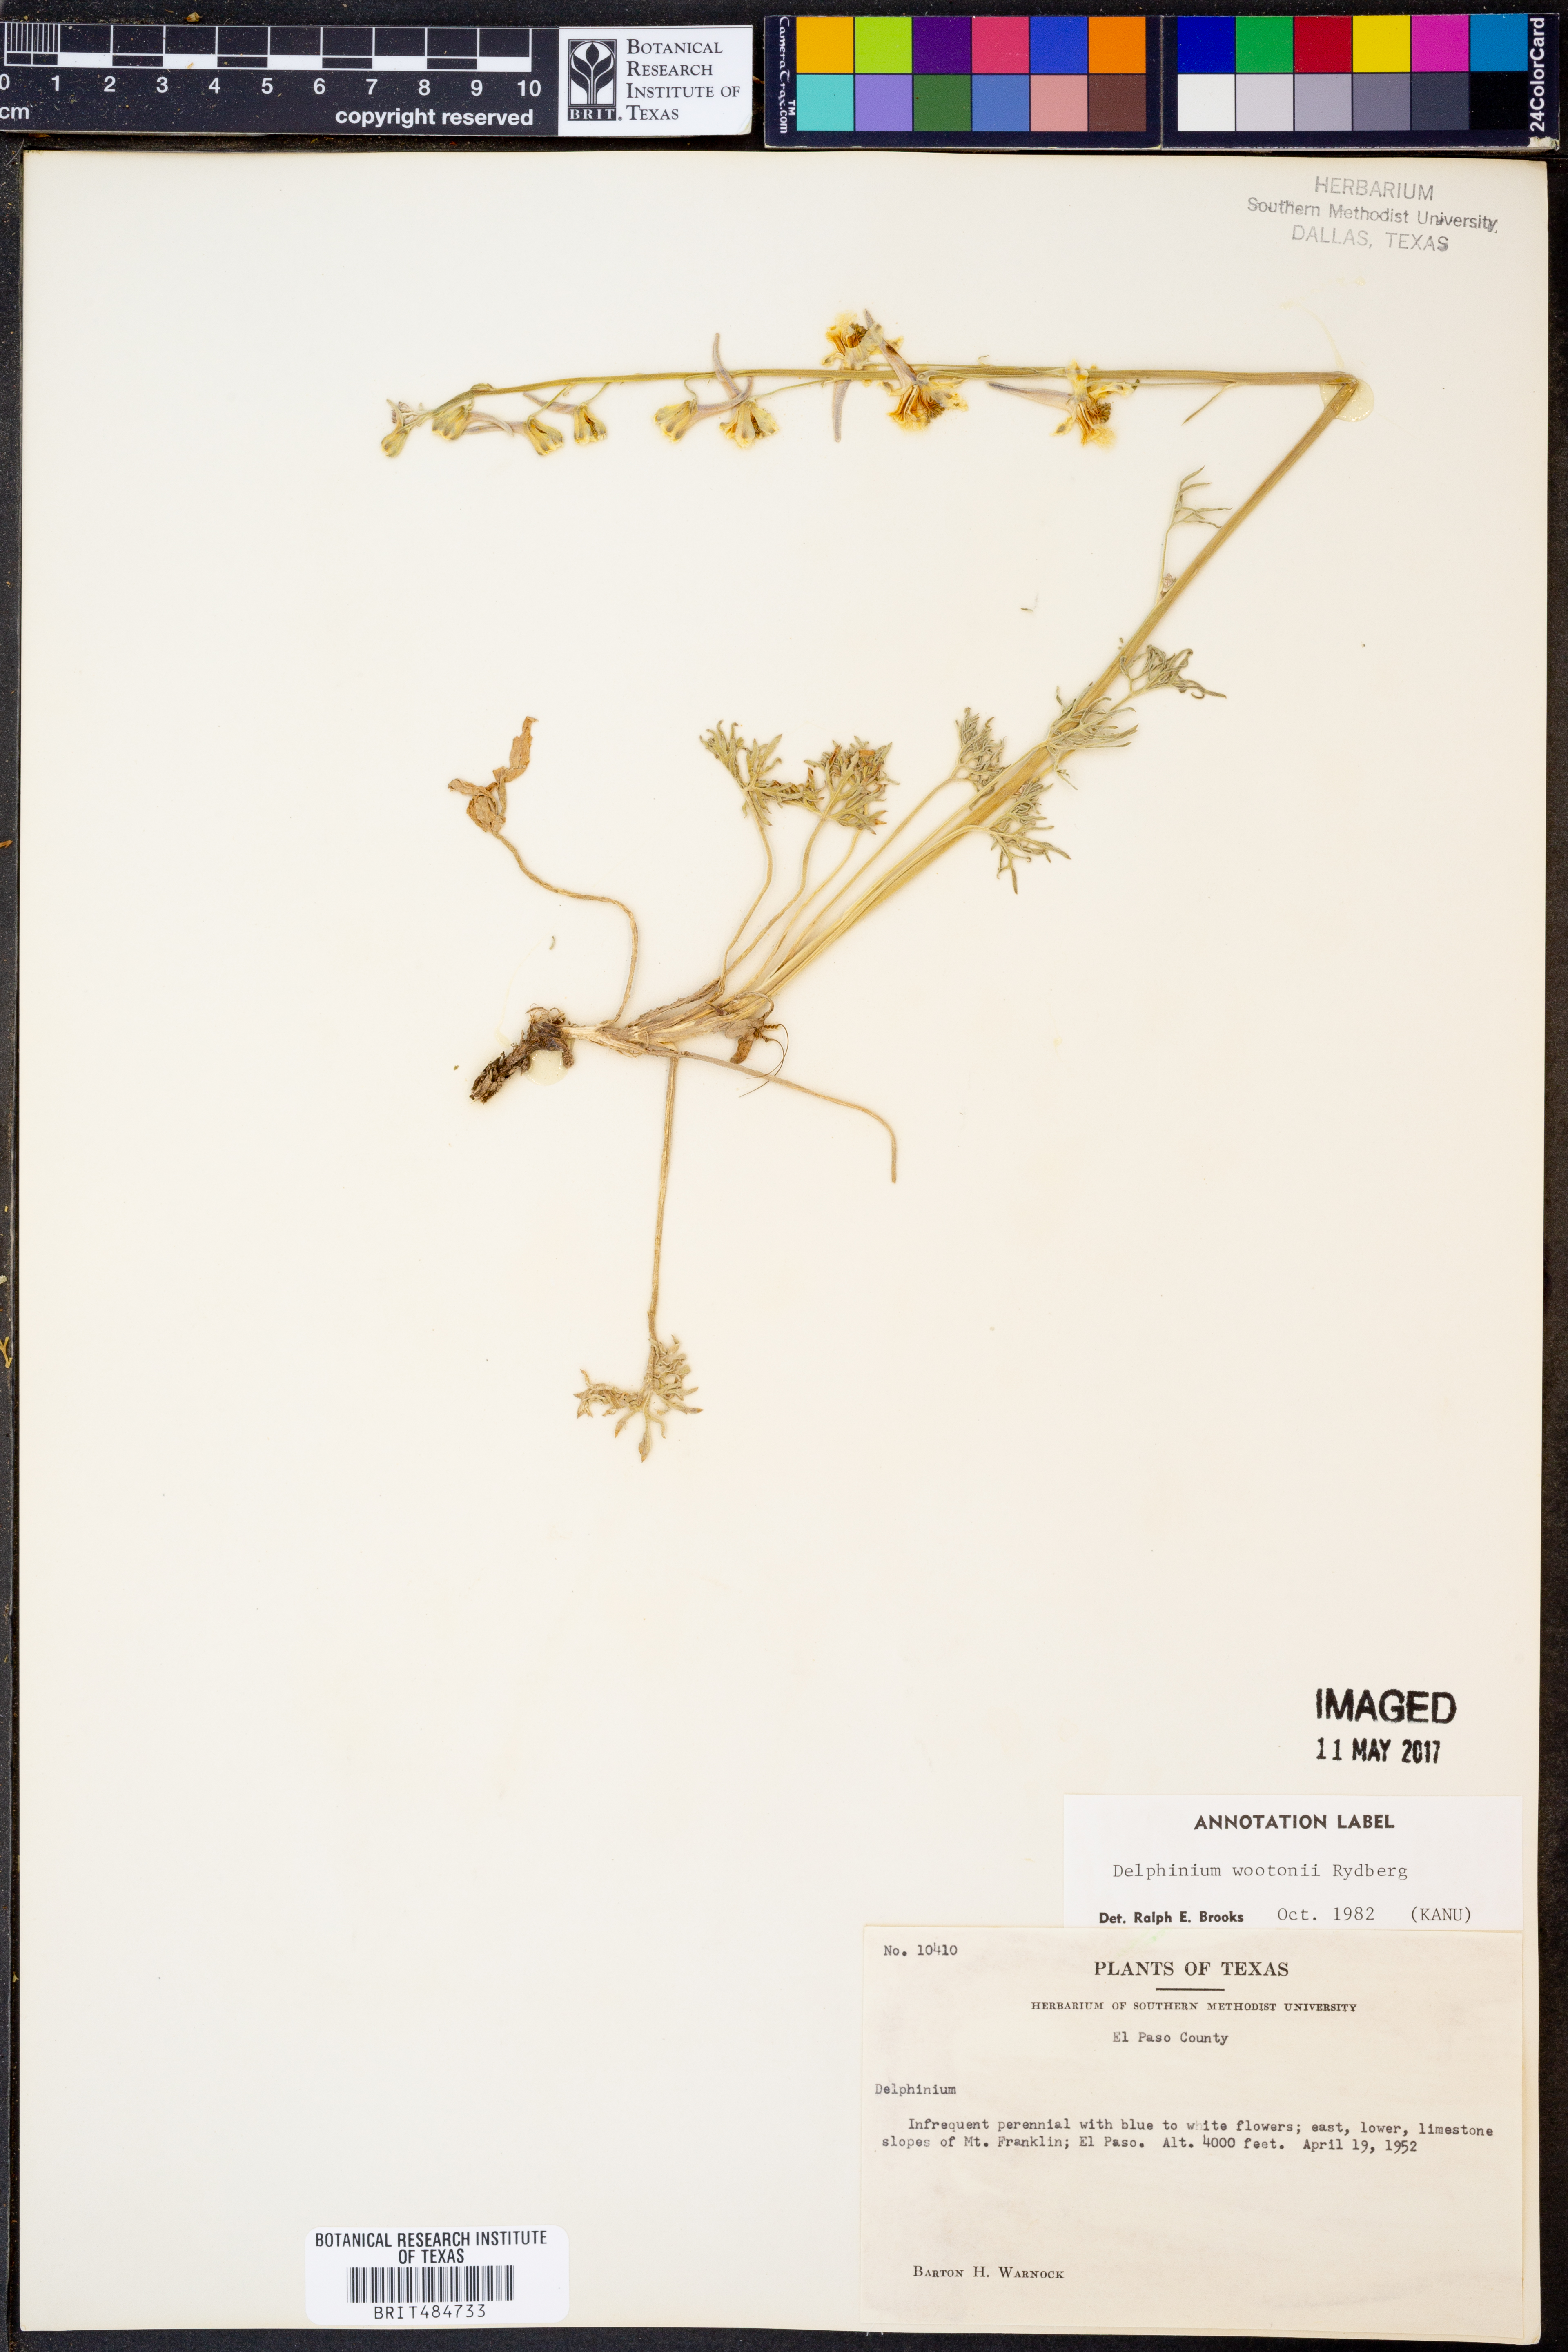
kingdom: Plantae
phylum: Tracheophyta
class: Magnoliopsida
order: Ranunculales
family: Ranunculaceae
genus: Delphinium
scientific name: Delphinium wootonii
